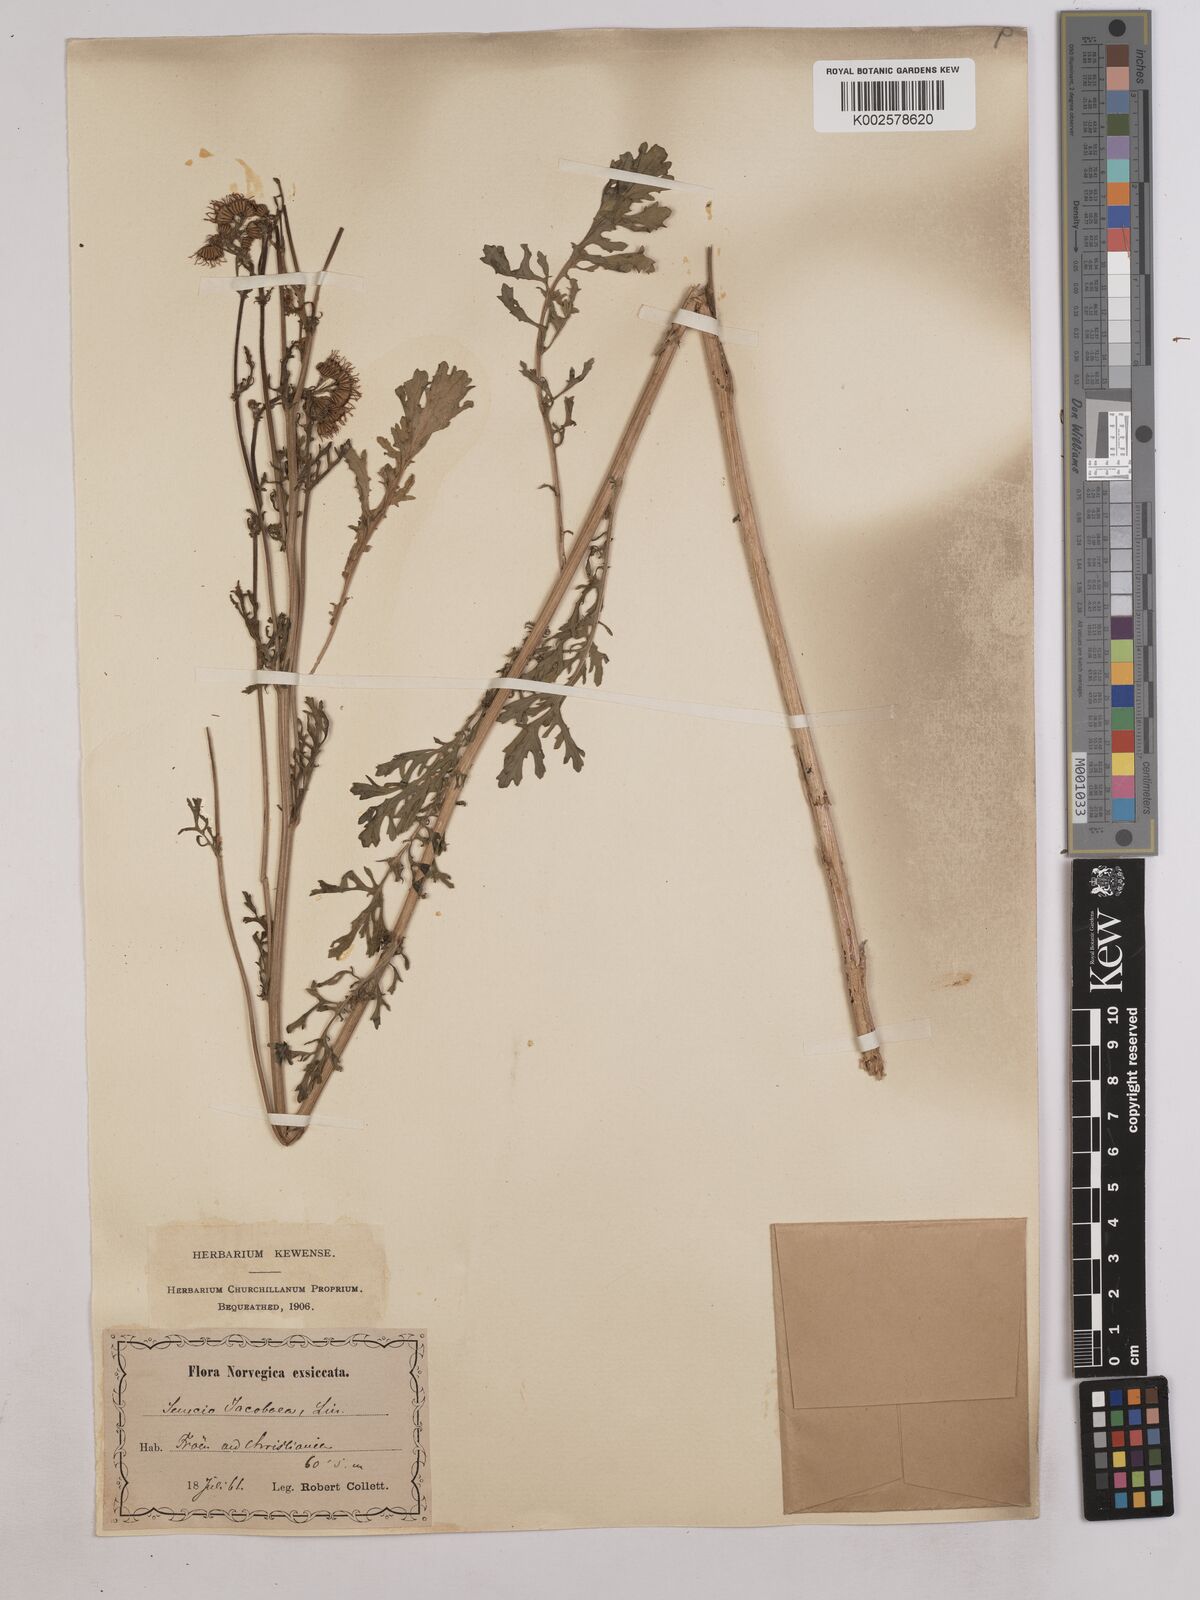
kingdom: Plantae
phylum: Tracheophyta
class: Magnoliopsida
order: Asterales
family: Asteraceae
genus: Jacobaea
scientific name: Jacobaea vulgaris
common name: Stinking willie
